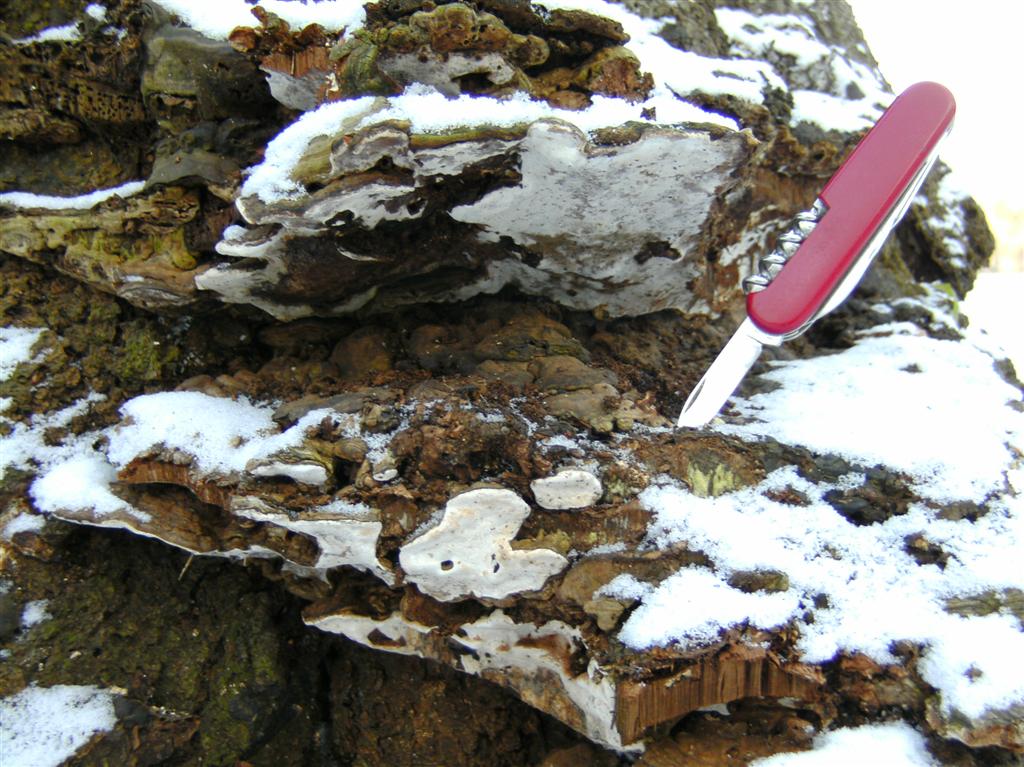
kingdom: Fungi
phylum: Basidiomycota
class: Agaricomycetes
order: Polyporales
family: Polyporaceae
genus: Ganoderma
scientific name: Ganoderma applanatum
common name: flad lakporesvamp
